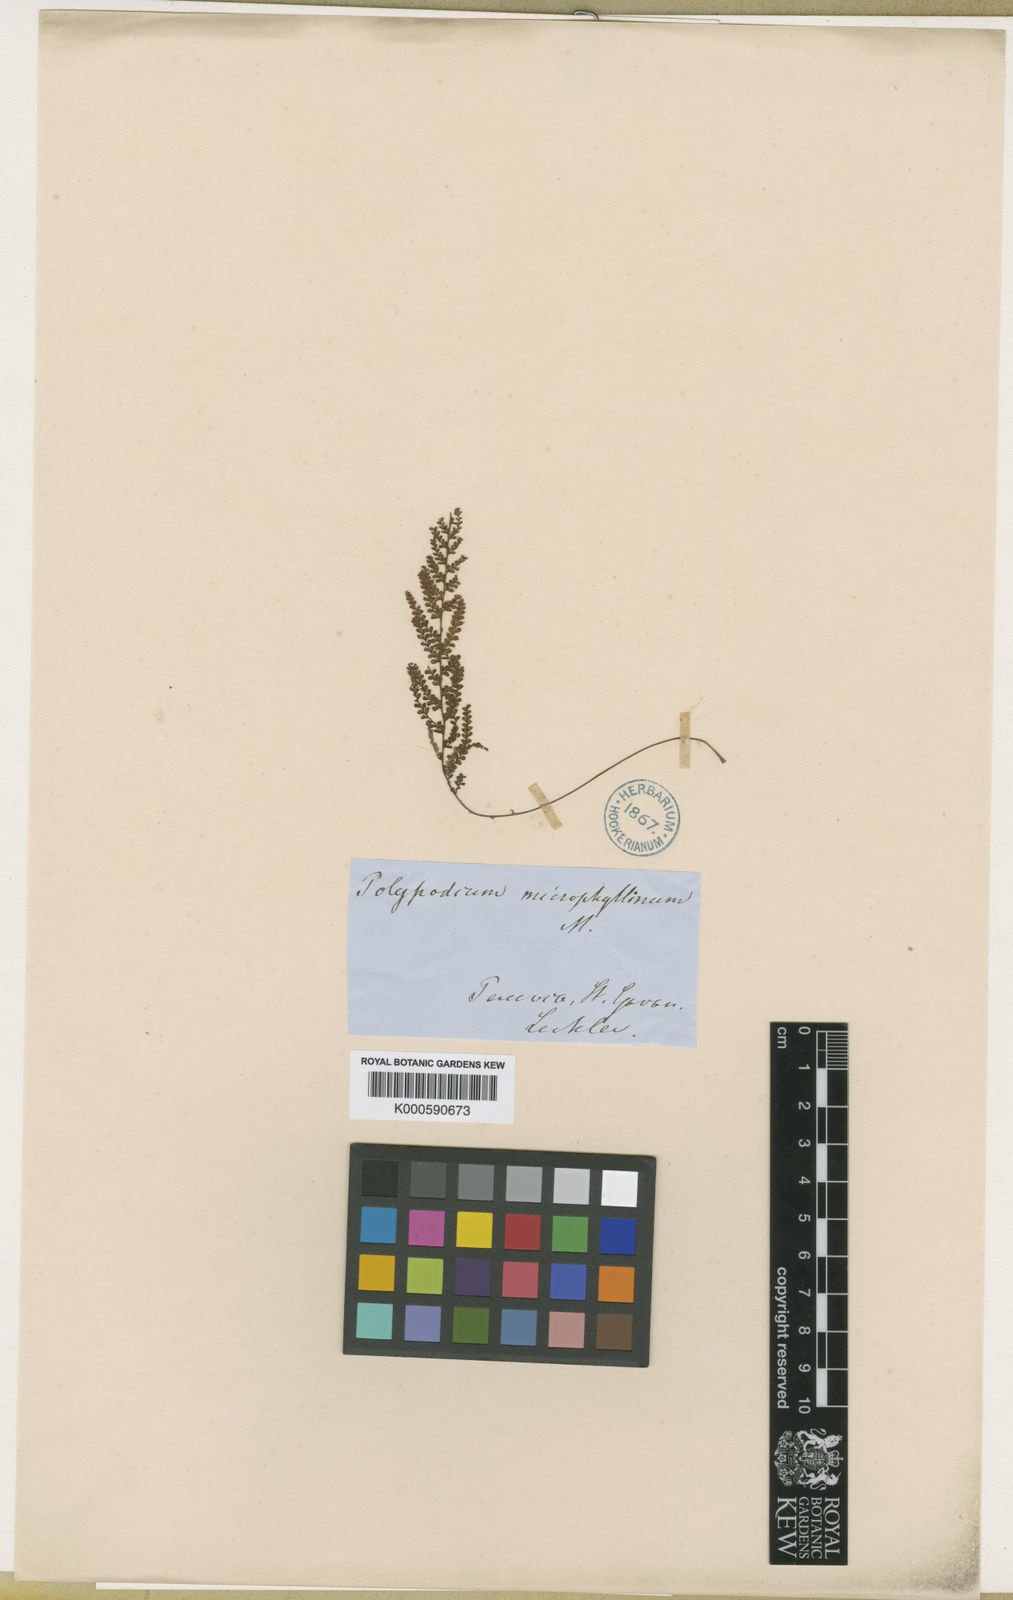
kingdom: Plantae
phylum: Tracheophyta
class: Polypodiopsida
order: Polypodiales
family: Polypodiaceae
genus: Moranopteris
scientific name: Moranopteris longisetosa
